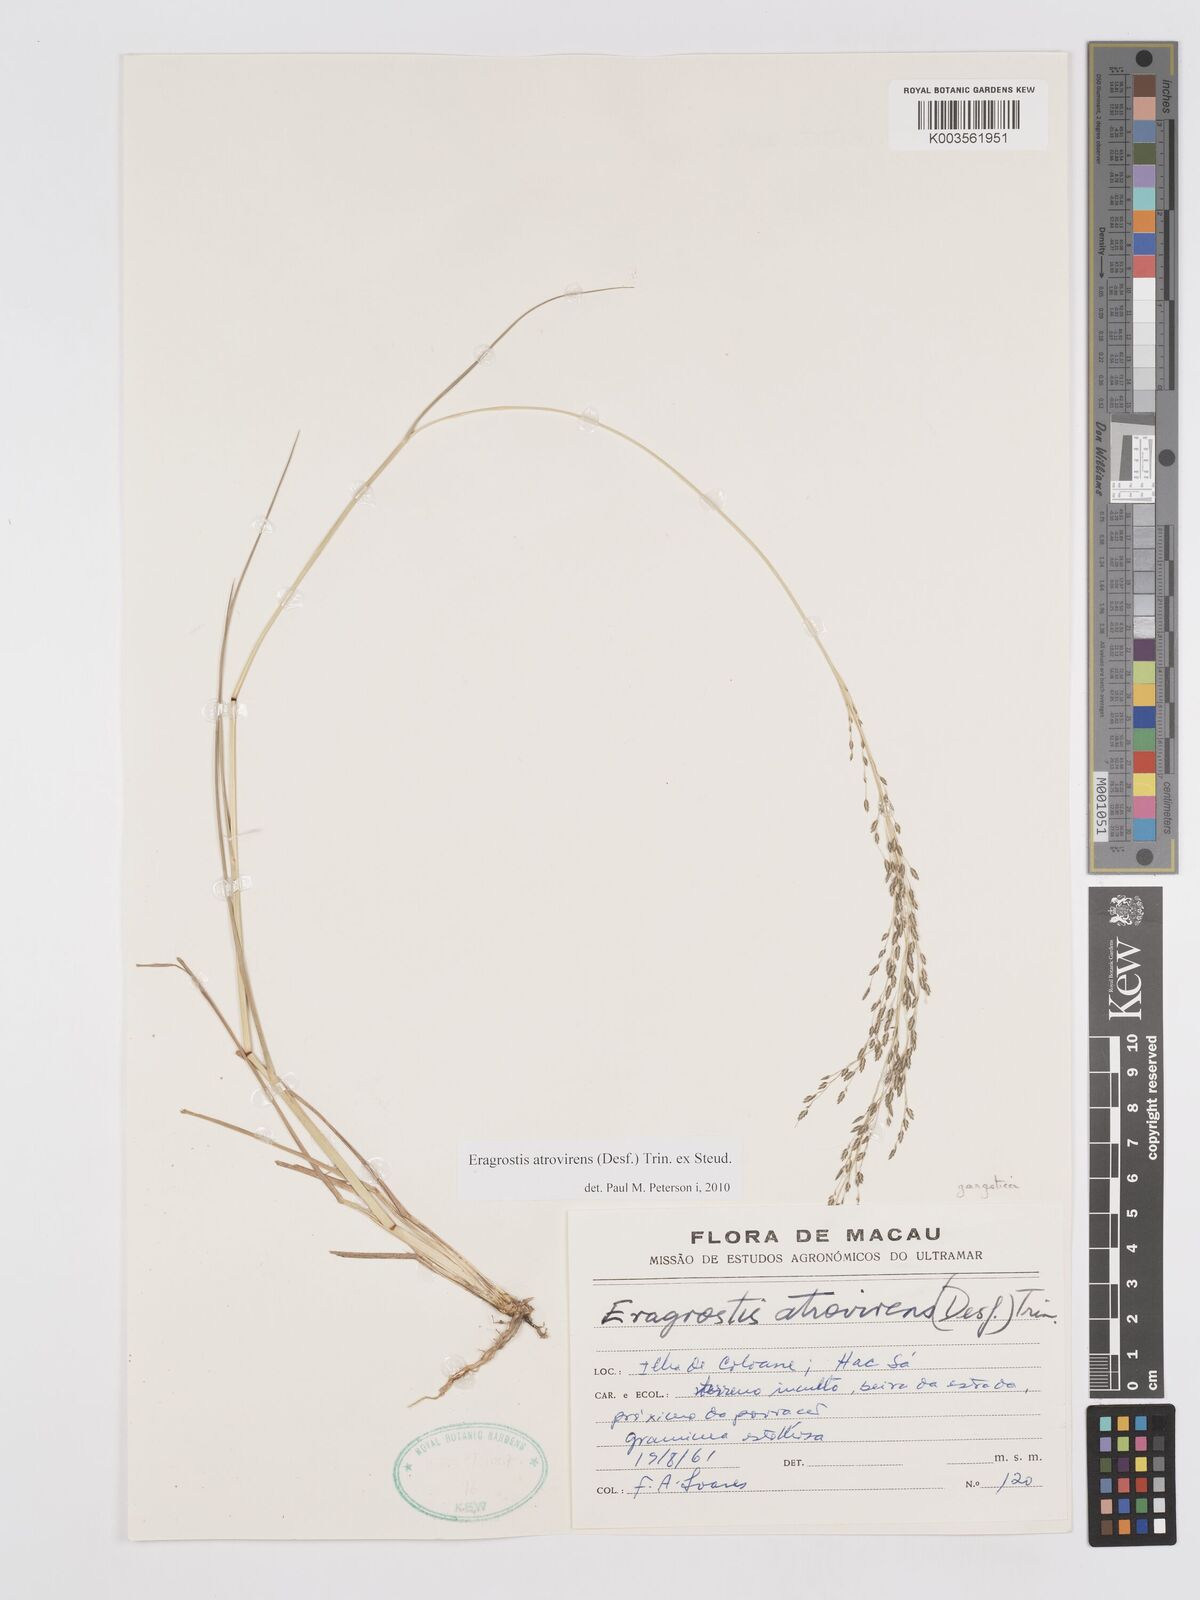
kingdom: Plantae
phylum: Tracheophyta
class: Liliopsida
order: Poales
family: Poaceae
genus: Eragrostis
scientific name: Eragrostis atrovirens
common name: Thalia lovegrass
